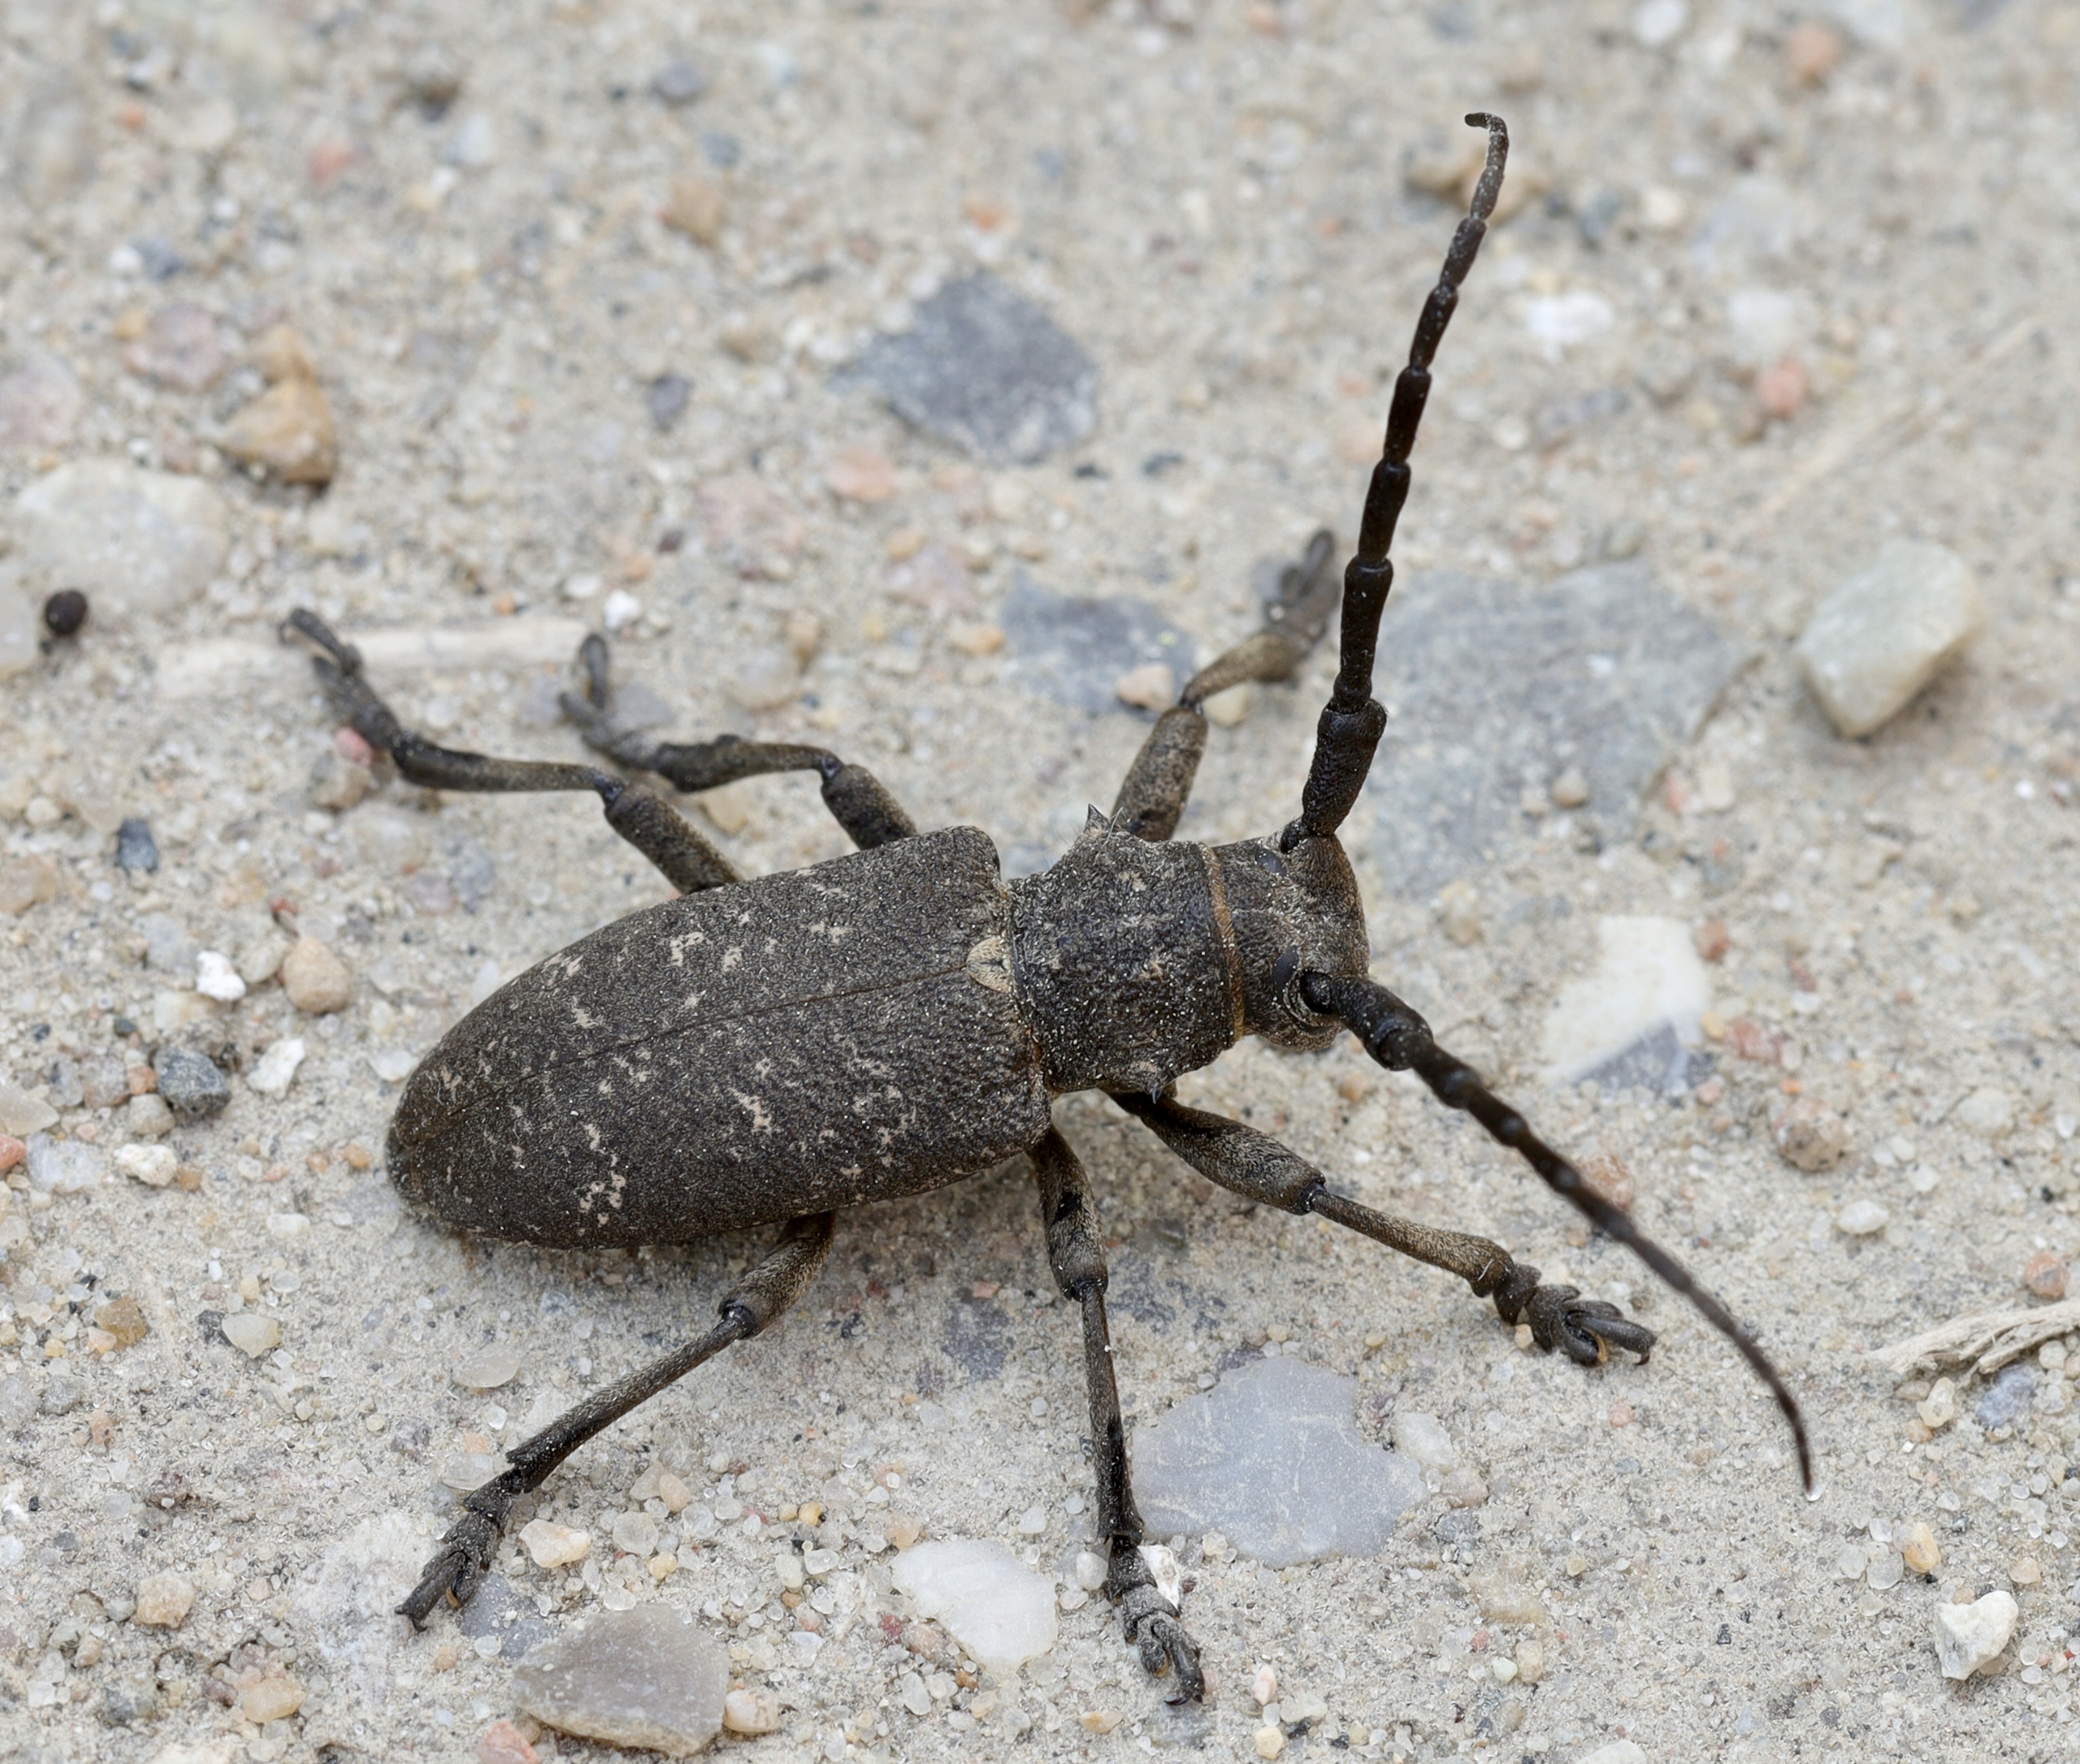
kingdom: Animalia
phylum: Arthropoda
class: Insecta
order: Coleoptera
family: Cerambycidae
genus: Lamia
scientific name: Lamia textor
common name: Væver
